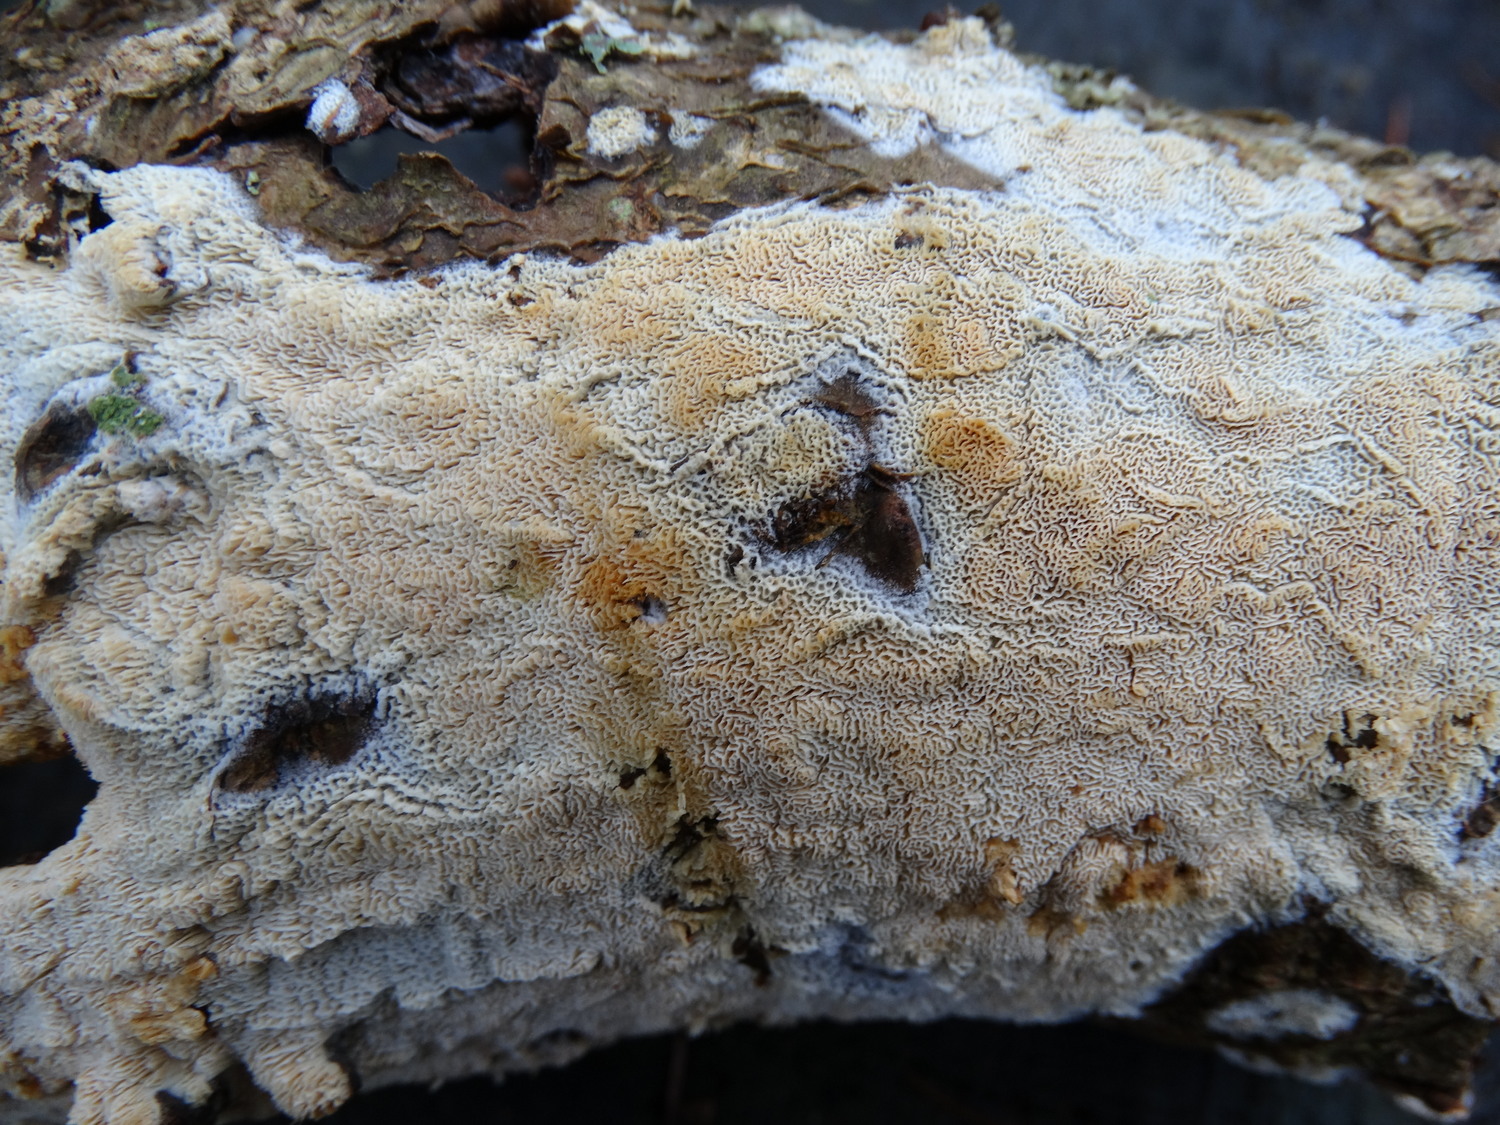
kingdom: Fungi
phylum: Basidiomycota
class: Agaricomycetes
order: Hymenochaetales
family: Schizoporaceae
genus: Xylodon
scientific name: Xylodon subtropicus
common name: labyrint-tandsvamp
